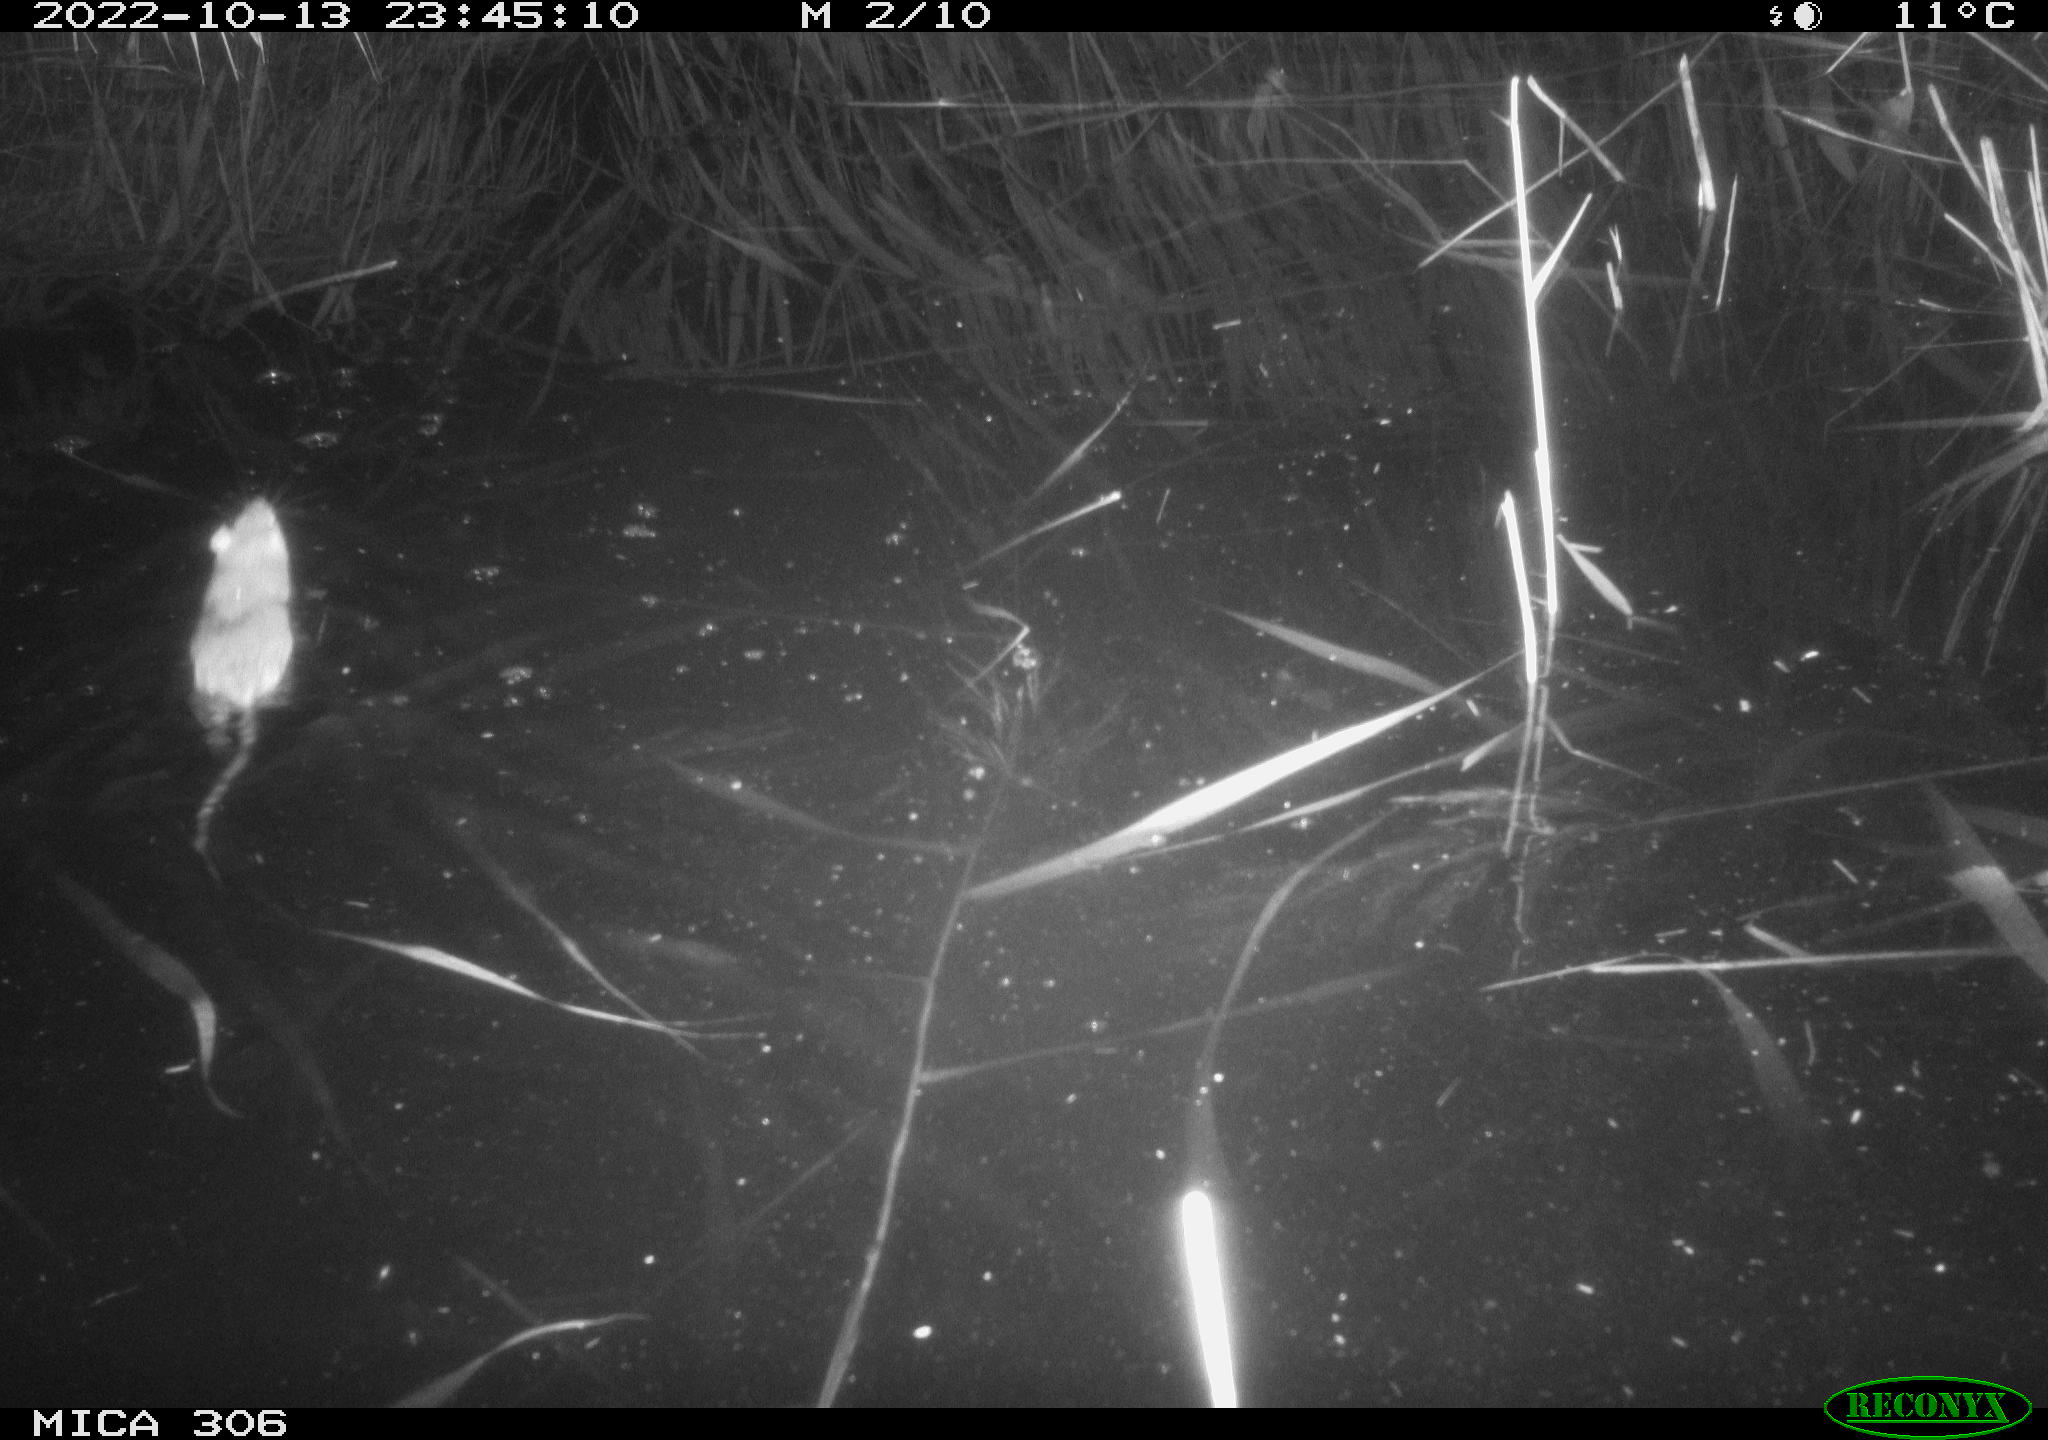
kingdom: Animalia
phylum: Chordata
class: Mammalia
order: Rodentia
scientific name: Rodentia
